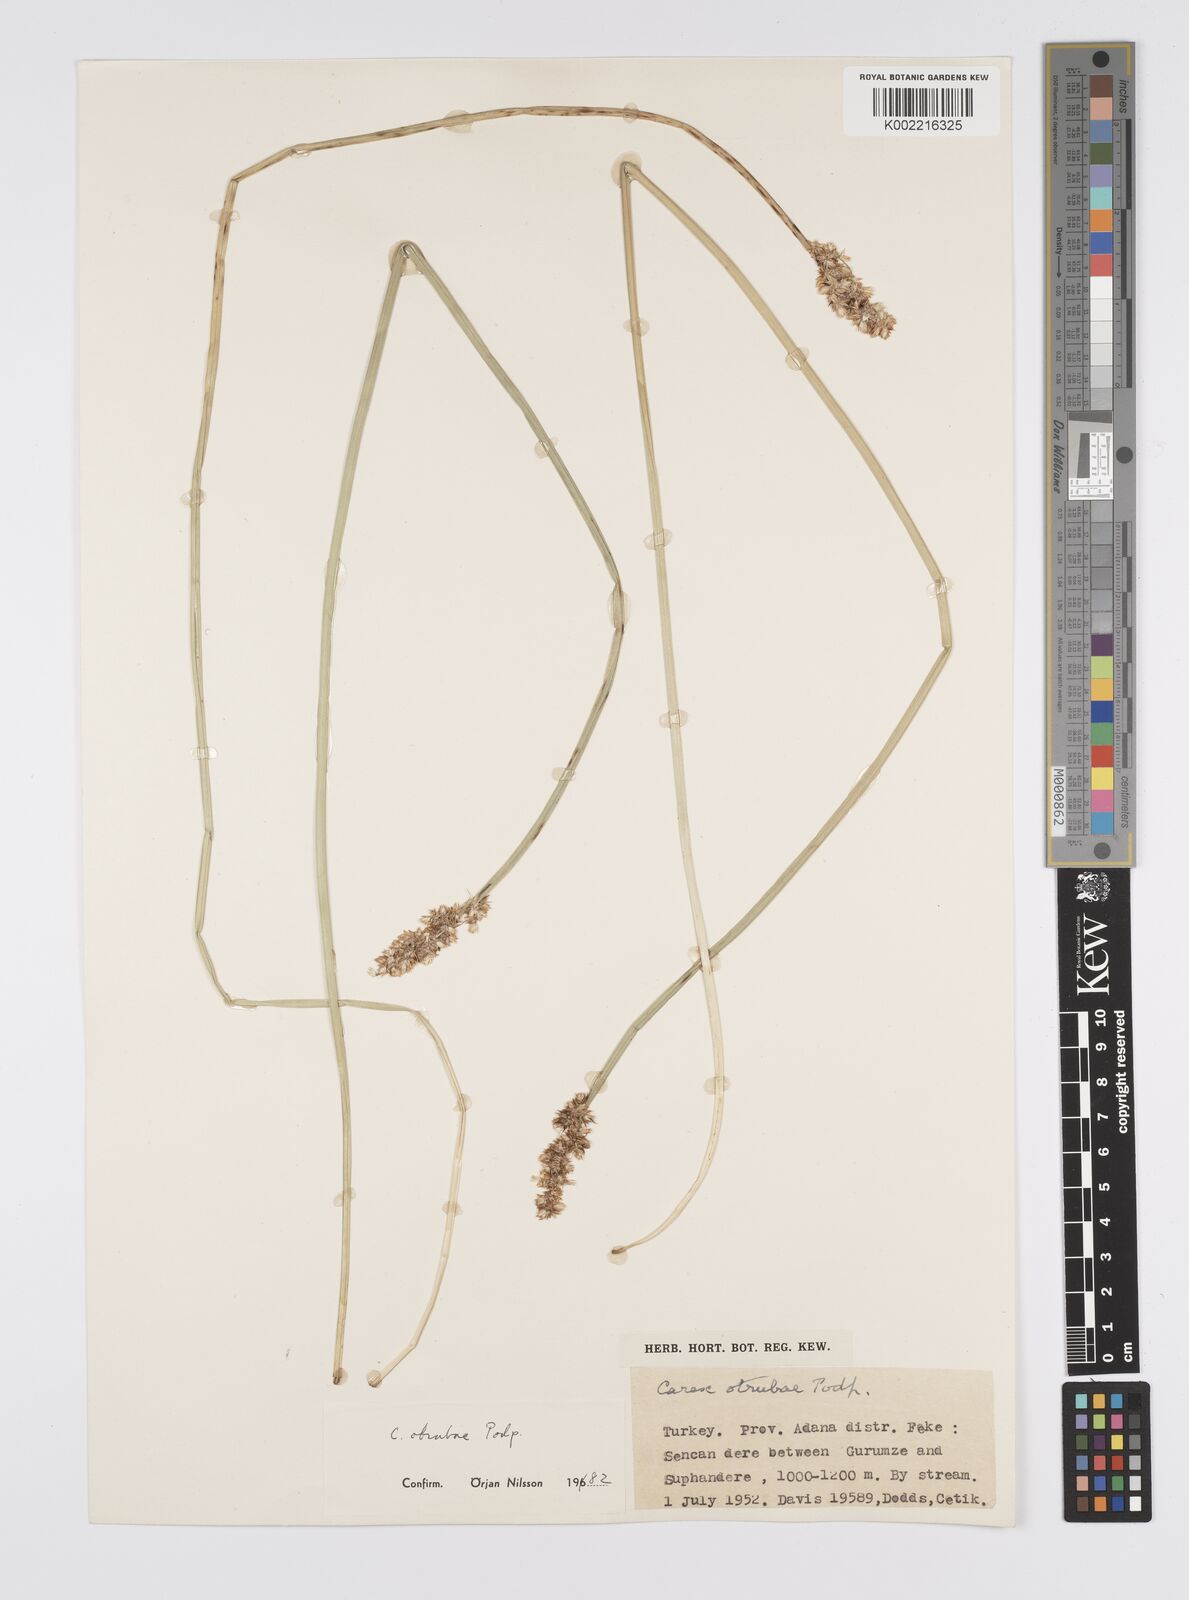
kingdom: Plantae
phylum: Tracheophyta
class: Liliopsida
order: Poales
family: Cyperaceae
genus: Carex
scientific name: Carex otrubae
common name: False fox-sedge
